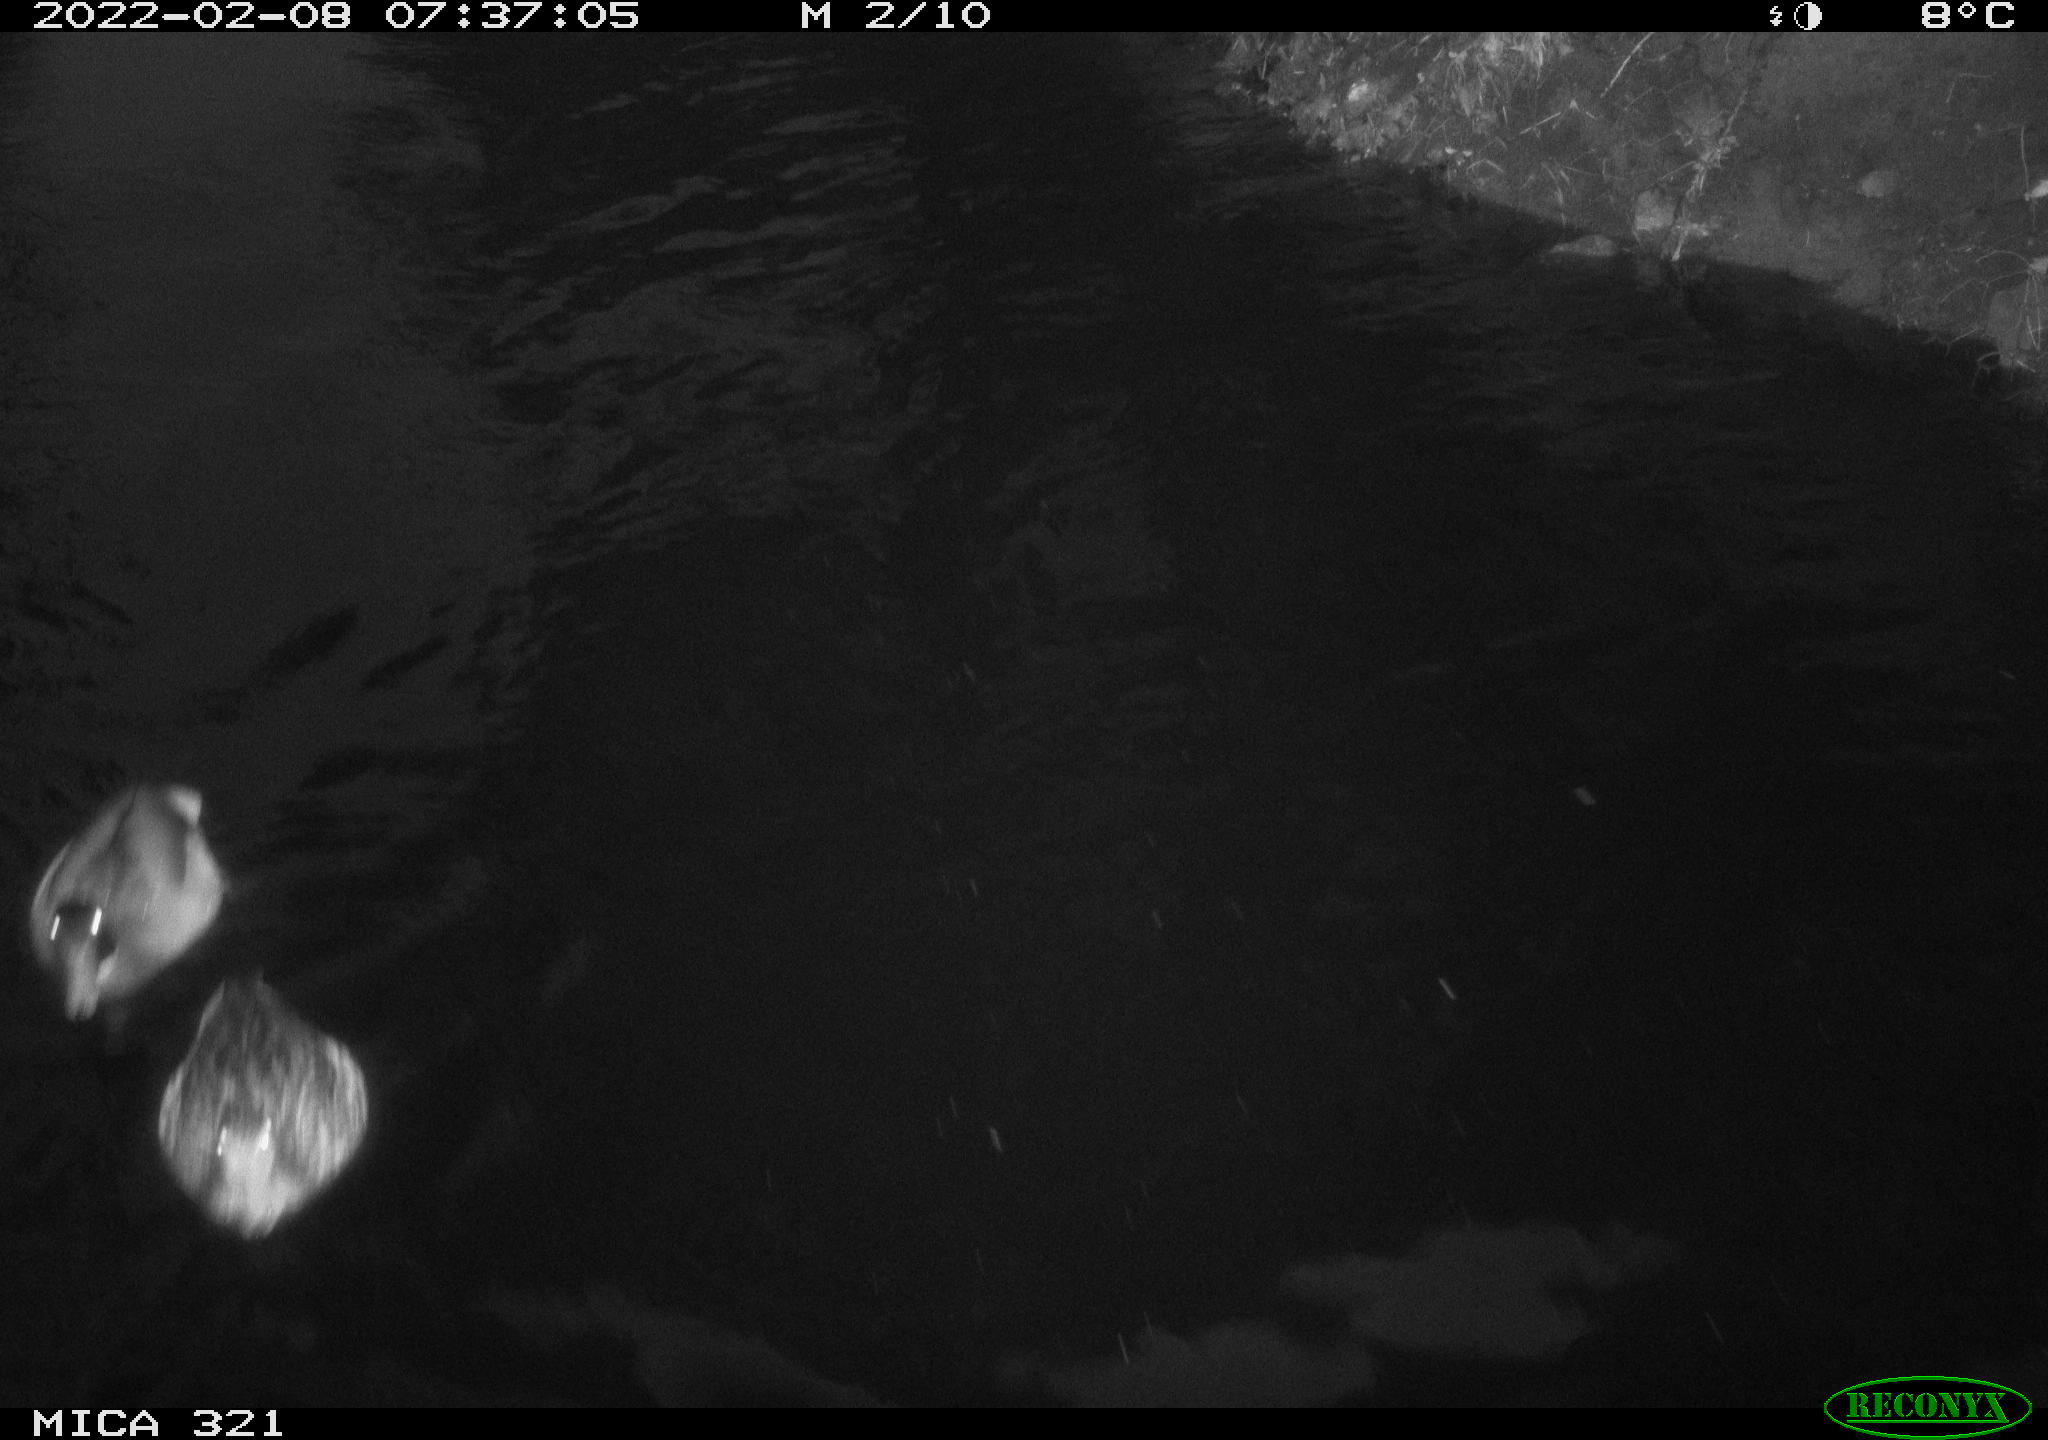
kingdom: Animalia
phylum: Chordata
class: Aves
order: Anseriformes
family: Anatidae
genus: Anas
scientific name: Anas platyrhynchos
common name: Mallard
